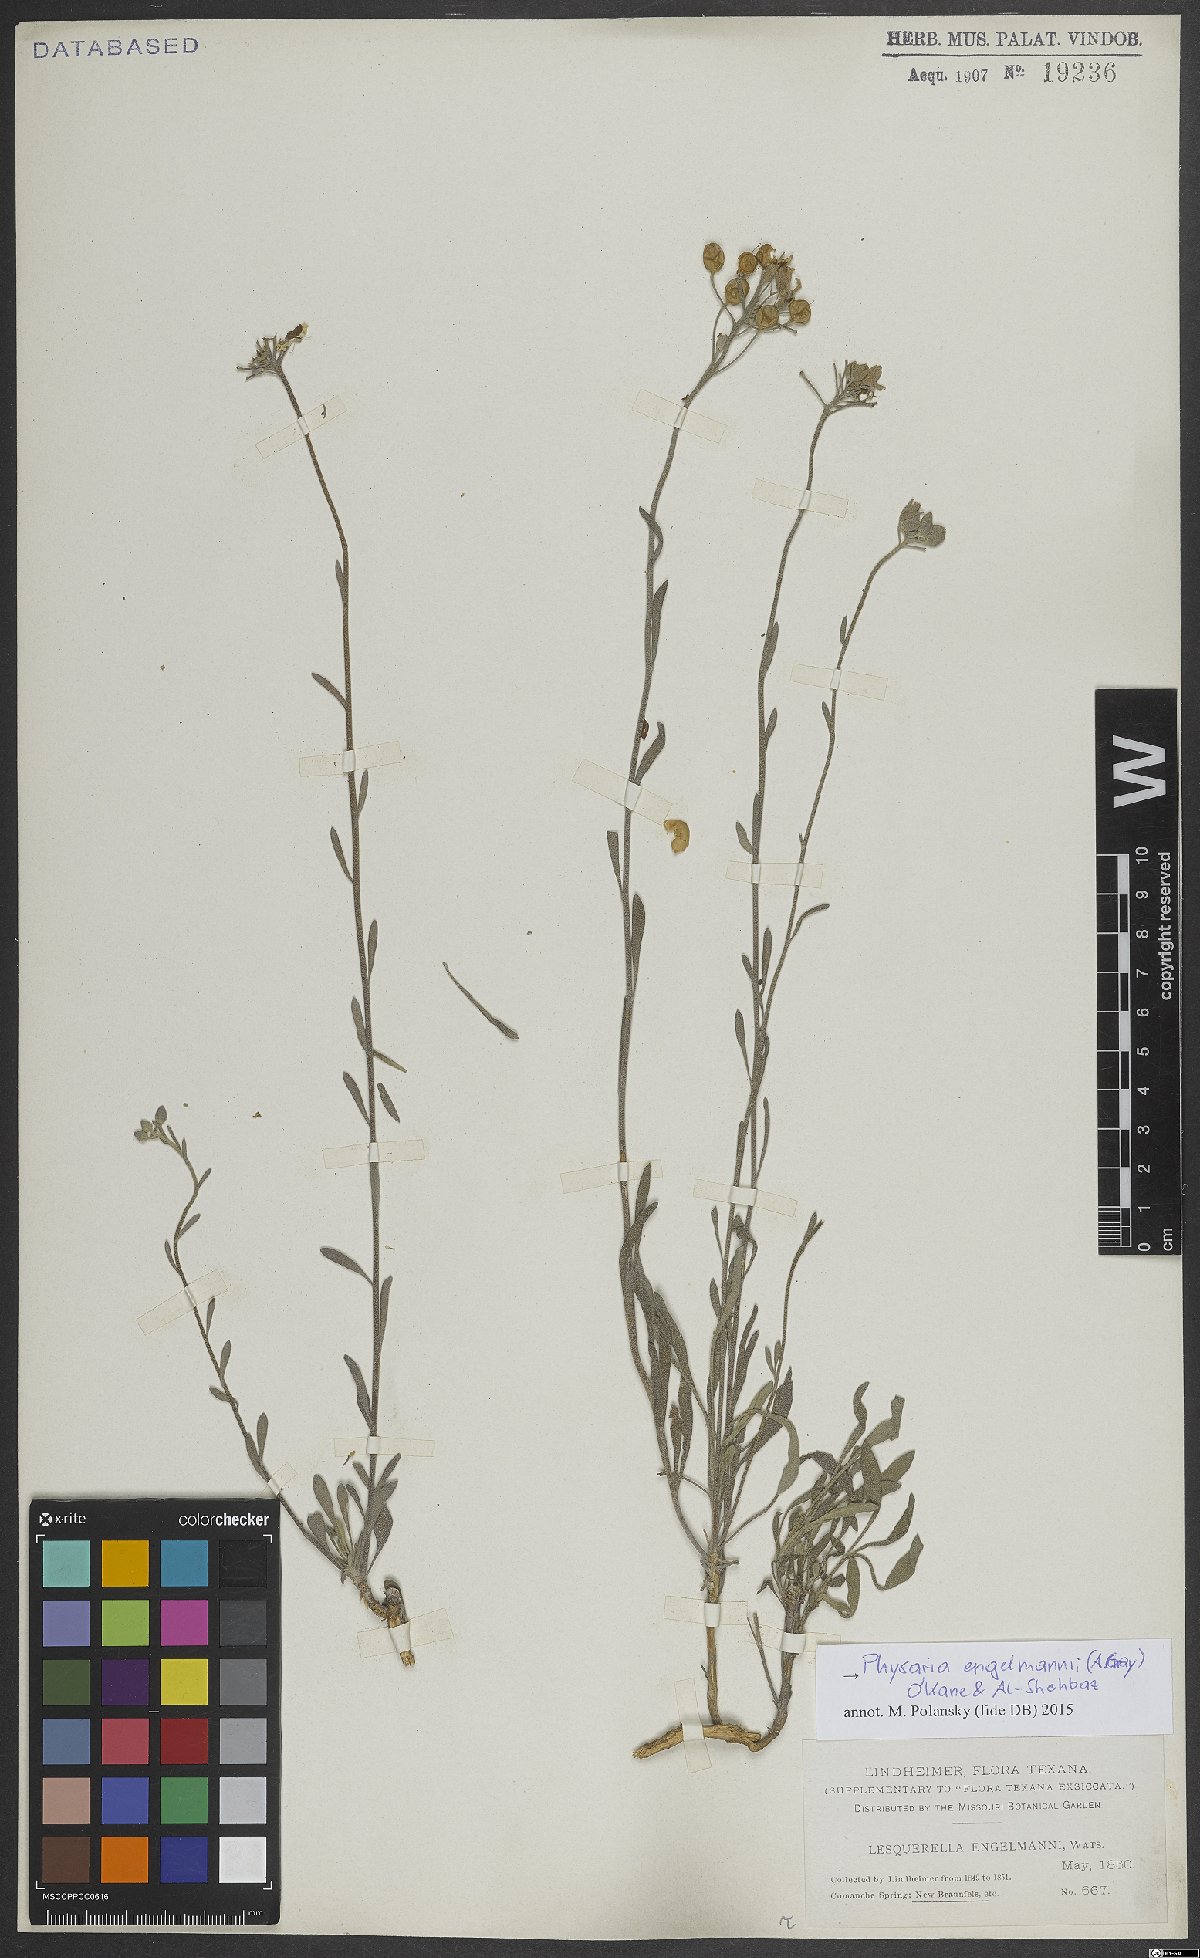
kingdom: Plantae
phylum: Tracheophyta
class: Magnoliopsida
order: Brassicales
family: Brassicaceae
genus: Physaria
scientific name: Physaria engelmannii
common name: Engelmann's bladderpod
